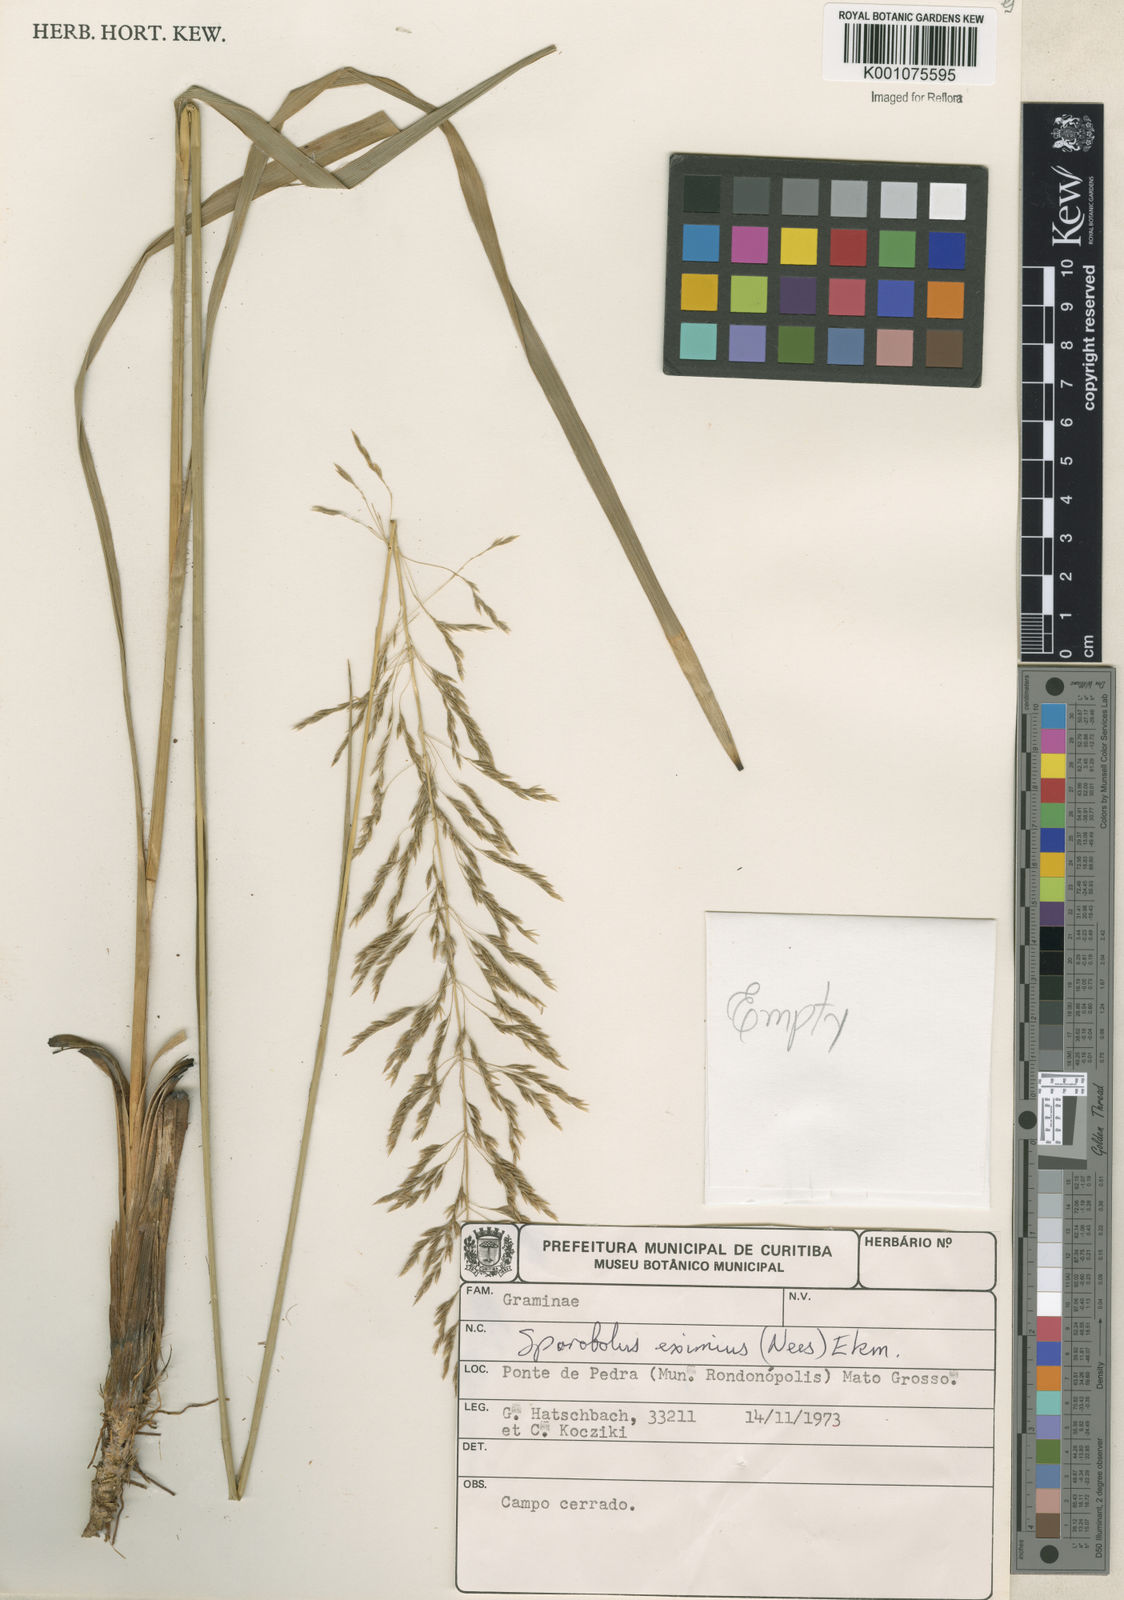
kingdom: Plantae
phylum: Tracheophyta
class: Liliopsida
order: Poales
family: Poaceae
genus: Sporobolus
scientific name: Sporobolus eximius
